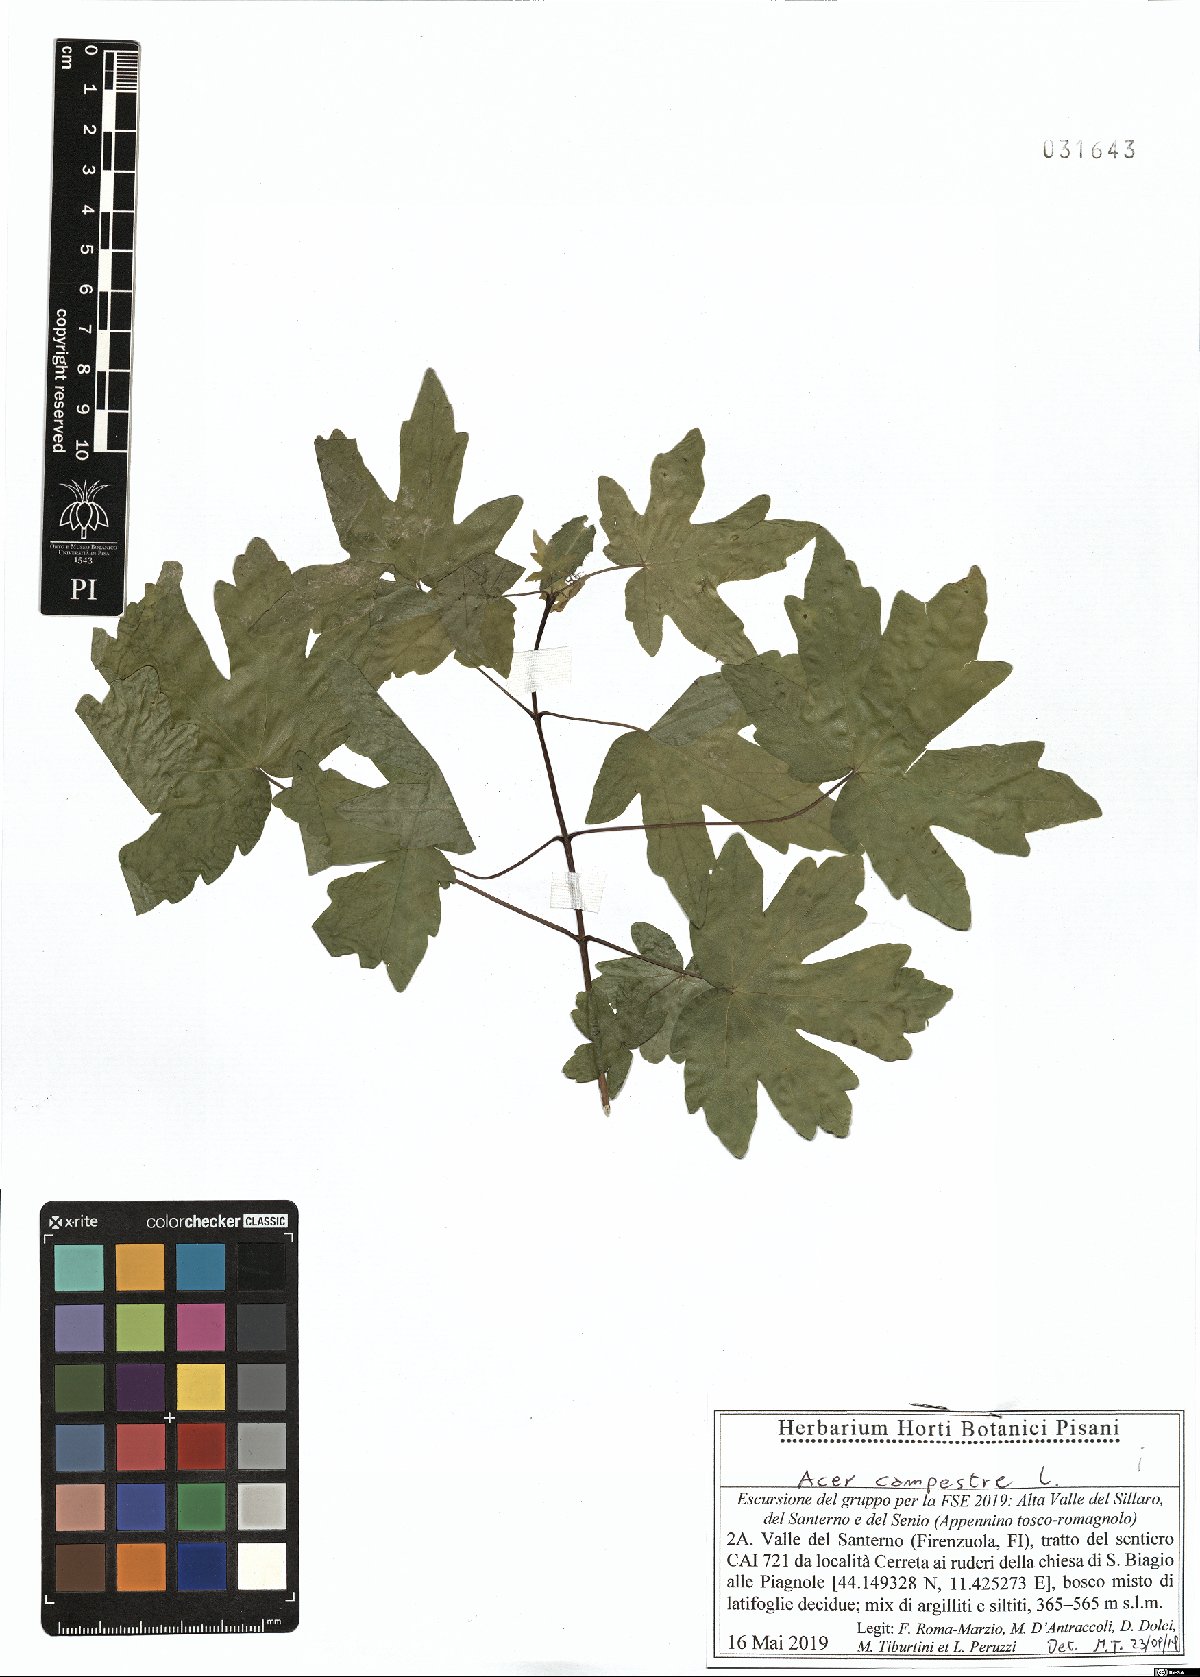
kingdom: Plantae
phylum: Tracheophyta
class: Magnoliopsida
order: Sapindales
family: Sapindaceae
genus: Acer
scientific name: Acer campestre
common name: Field maple
